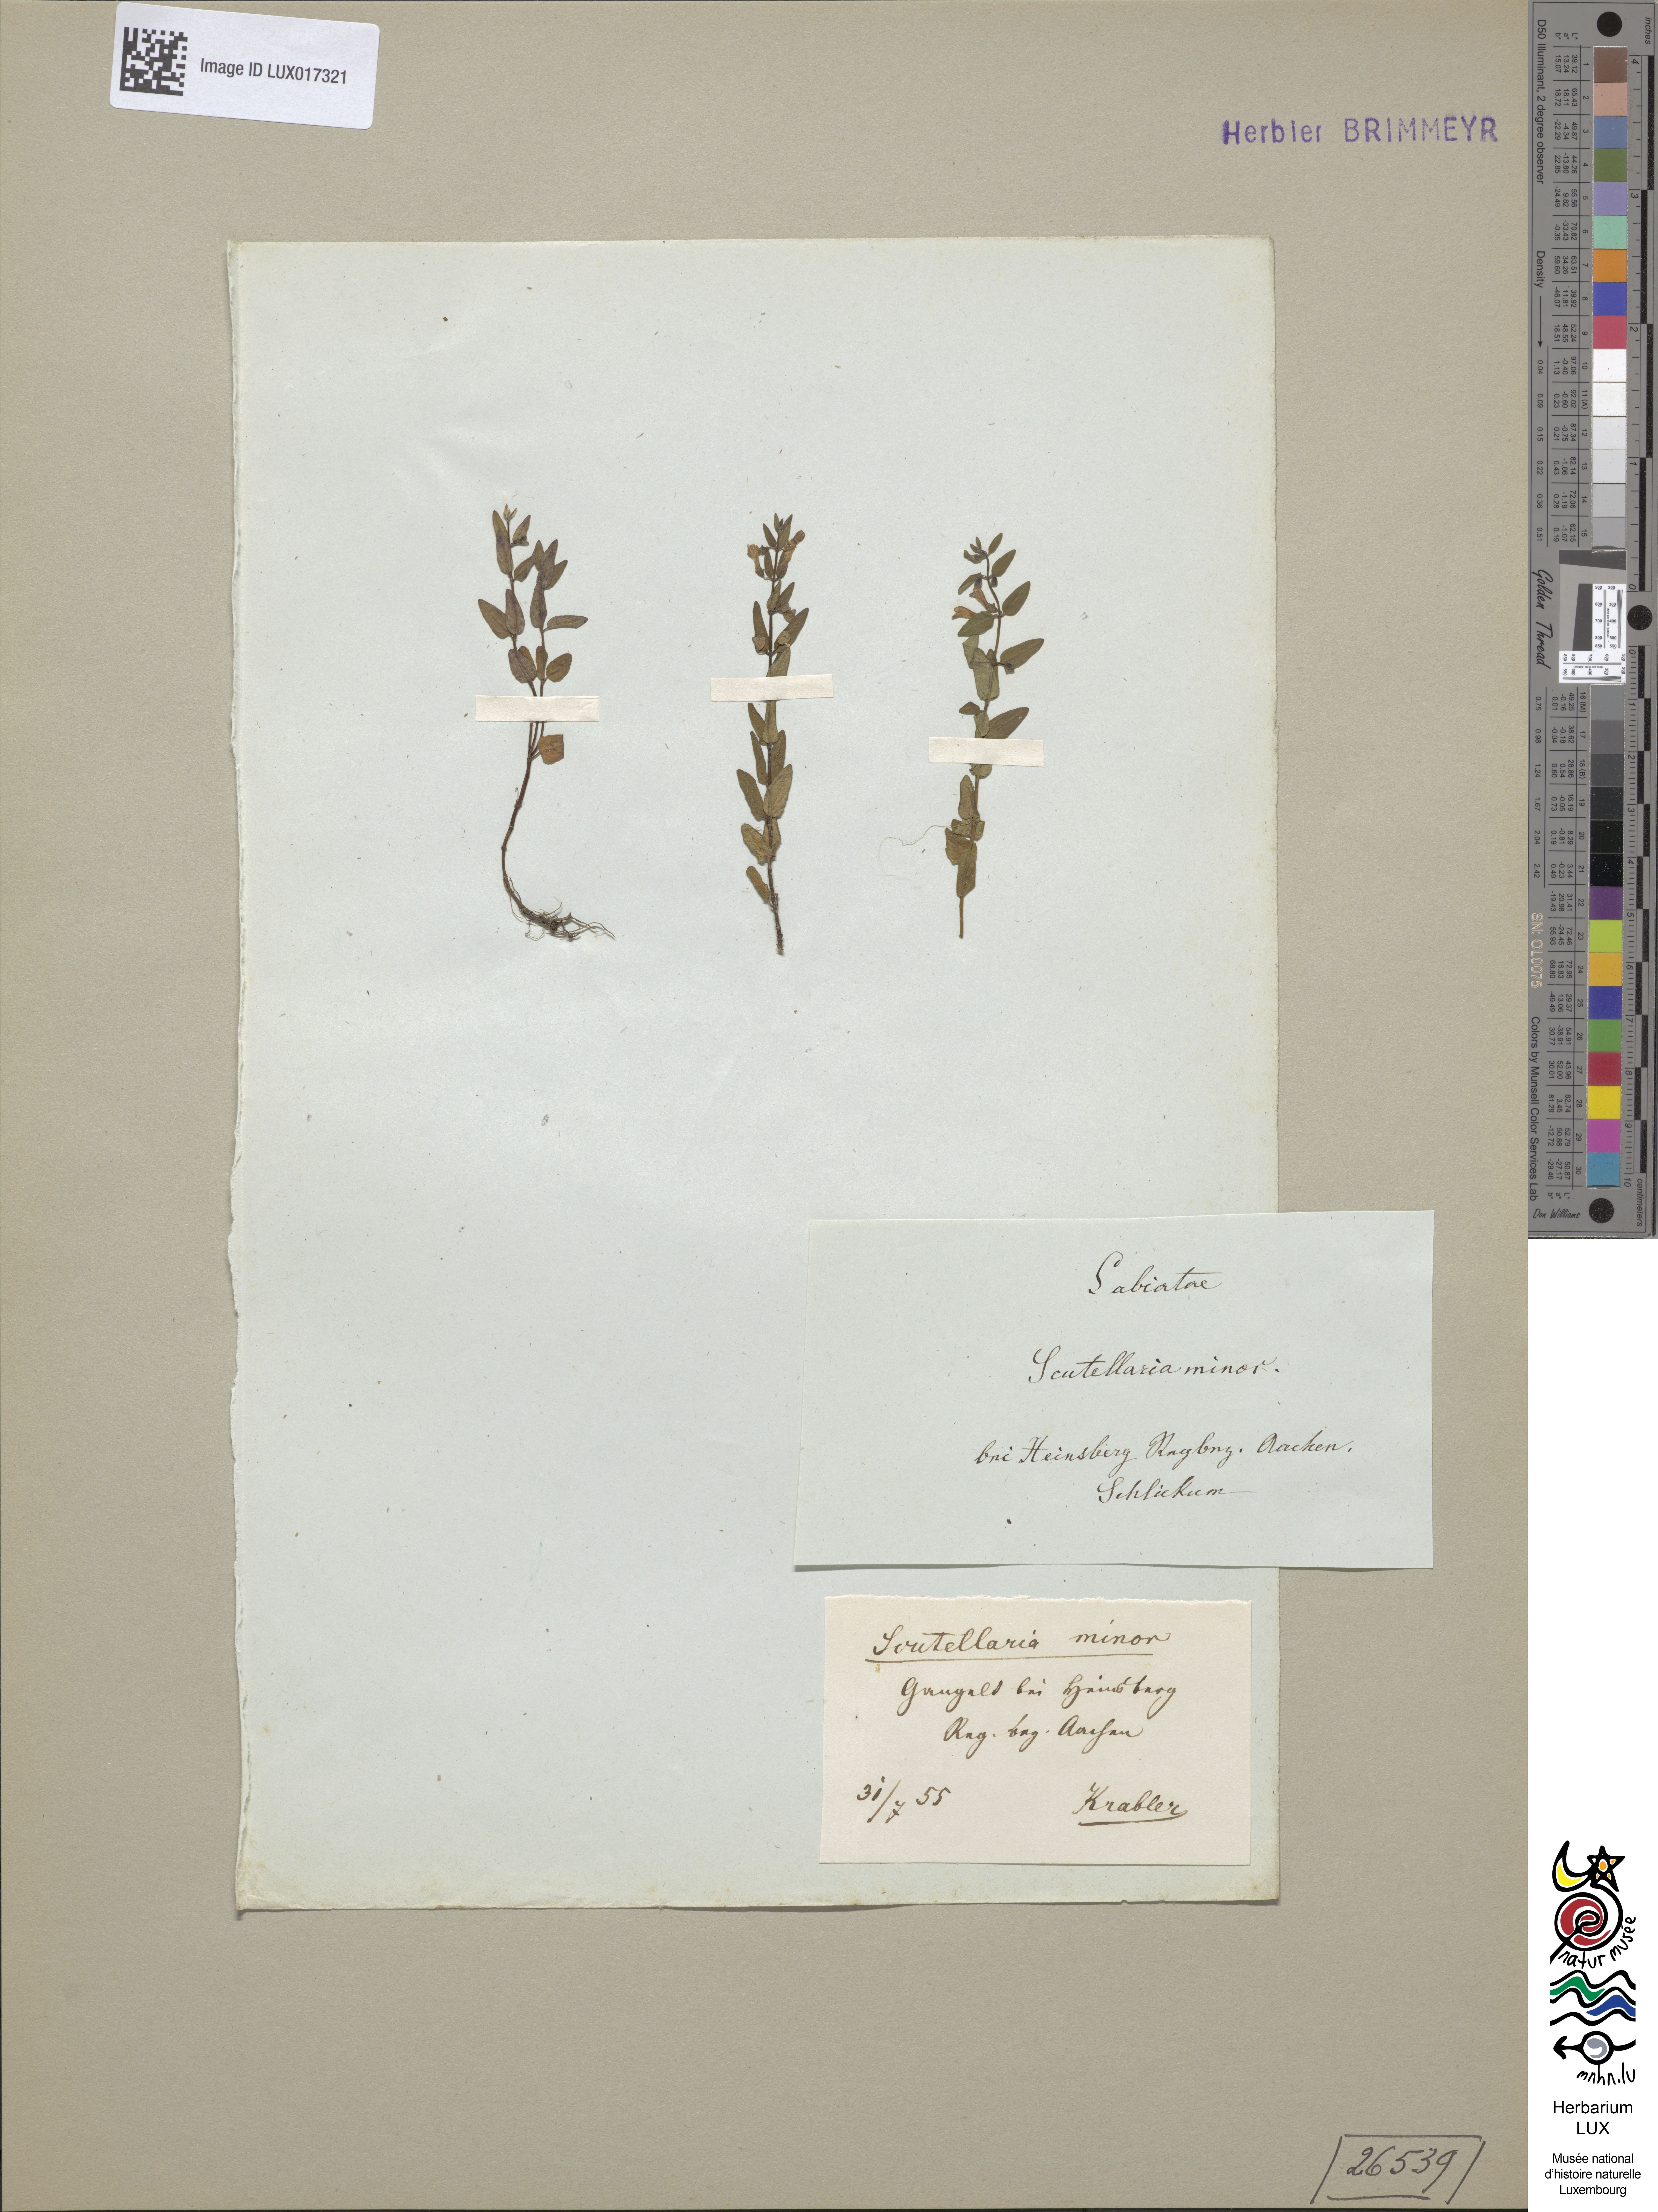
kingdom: Plantae
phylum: Tracheophyta
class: Magnoliopsida
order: Lamiales
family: Lamiaceae
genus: Scutellaria
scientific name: Scutellaria minor
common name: Lesser skullcap
